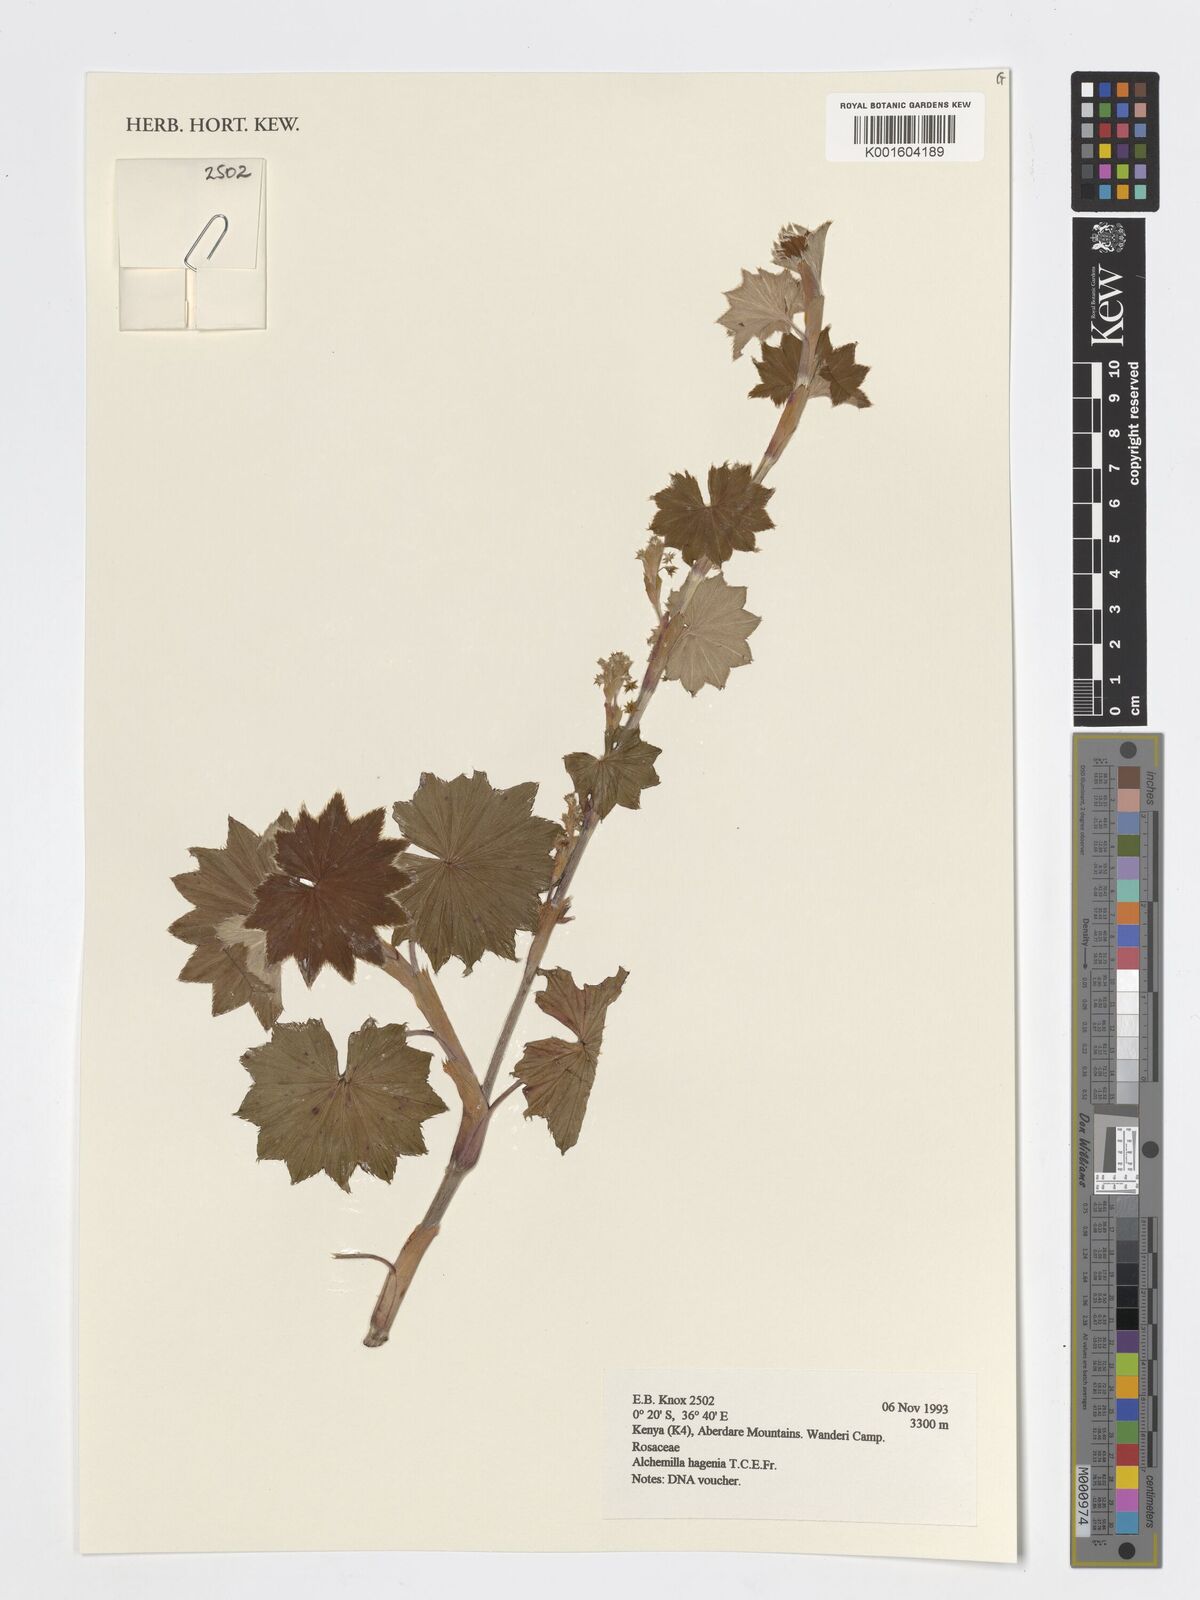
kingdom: Plantae
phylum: Tracheophyta
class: Magnoliopsida
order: Rosales
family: Rosaceae
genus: Alchemilla
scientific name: Alchemilla hagenia
